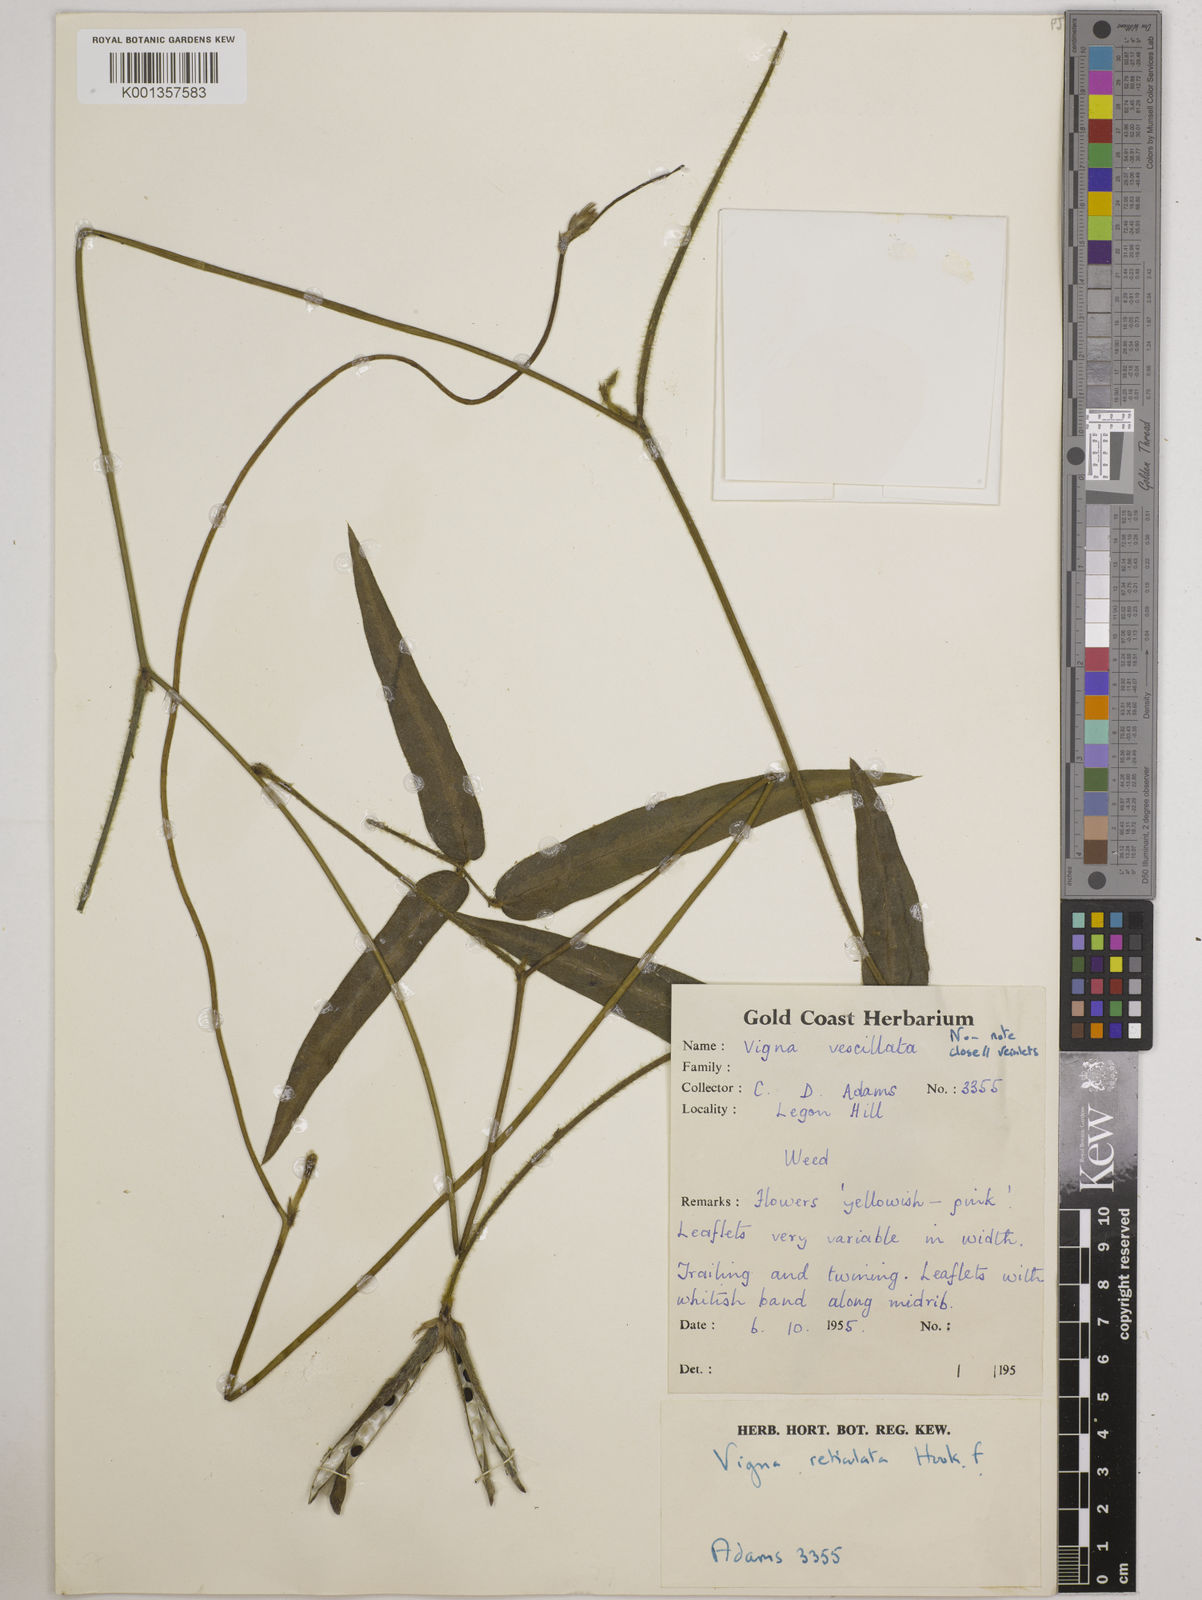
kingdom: Plantae
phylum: Tracheophyta
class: Magnoliopsida
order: Fabales
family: Fabaceae
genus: Vigna
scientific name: Vigna reticulata
